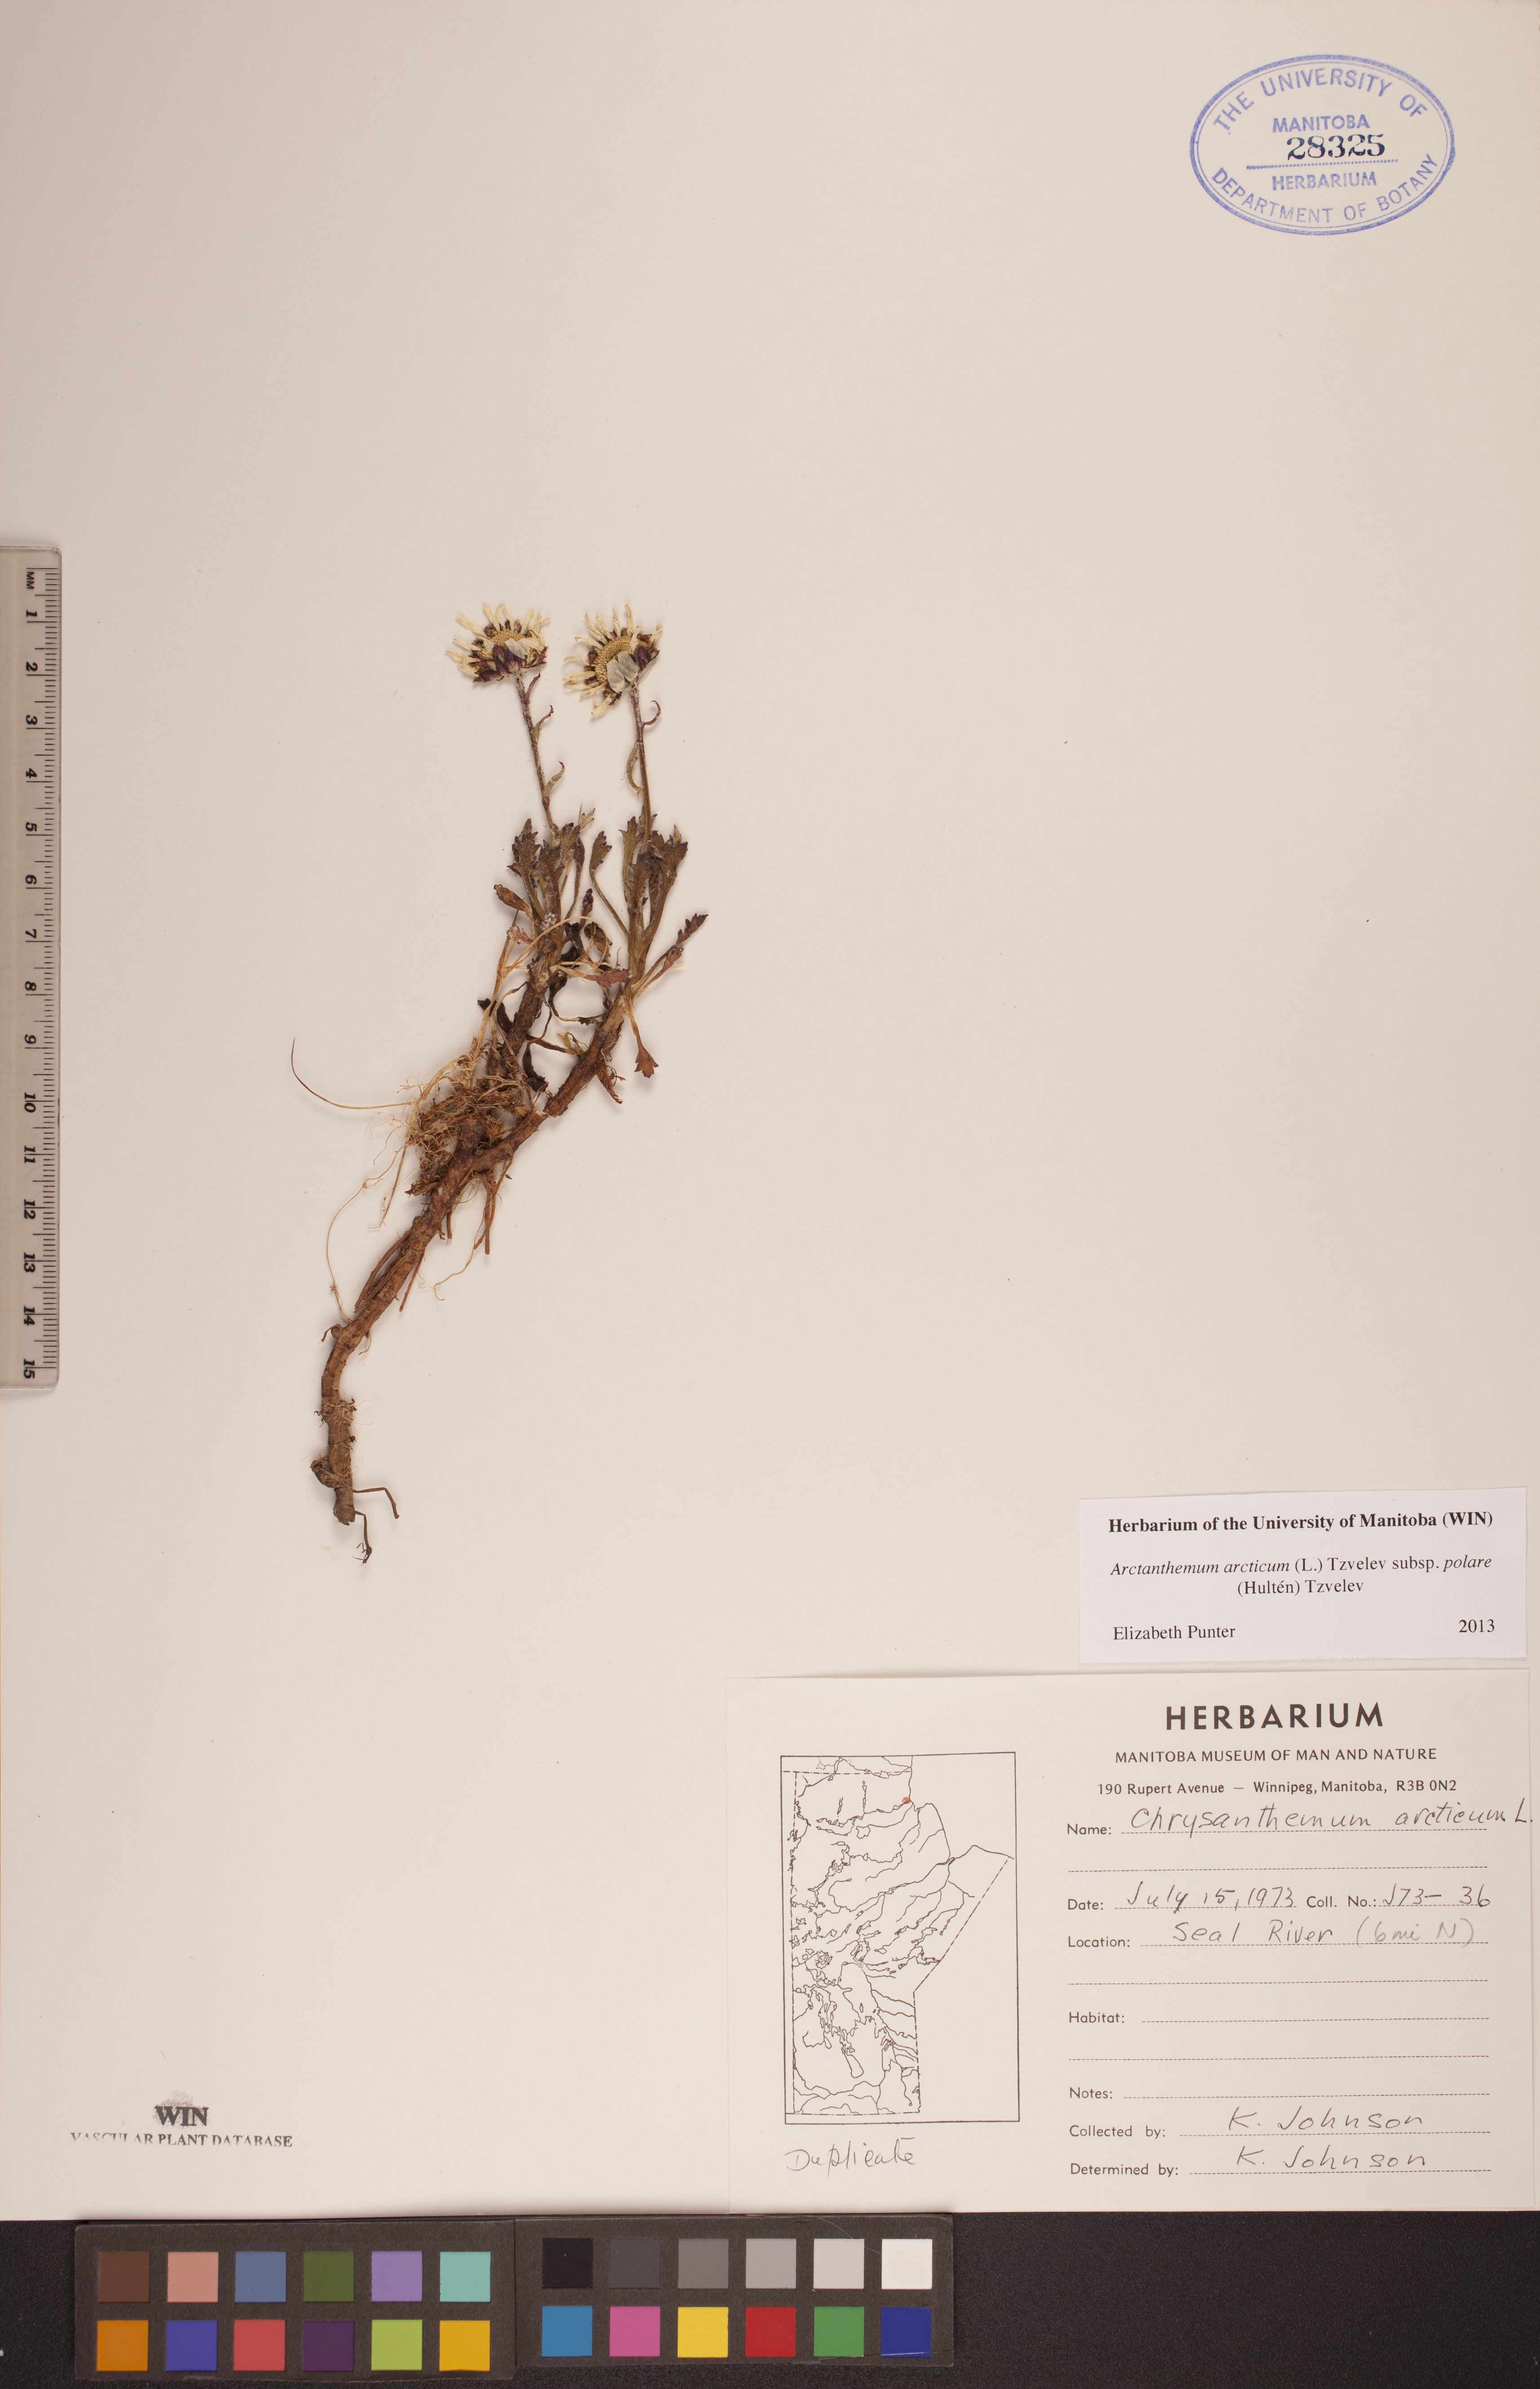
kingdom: Plantae
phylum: Tracheophyta
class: Magnoliopsida
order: Asterales
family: Asteraceae
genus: Arctanthemum
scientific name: Arctanthemum arcticum
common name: Arctic daisy
